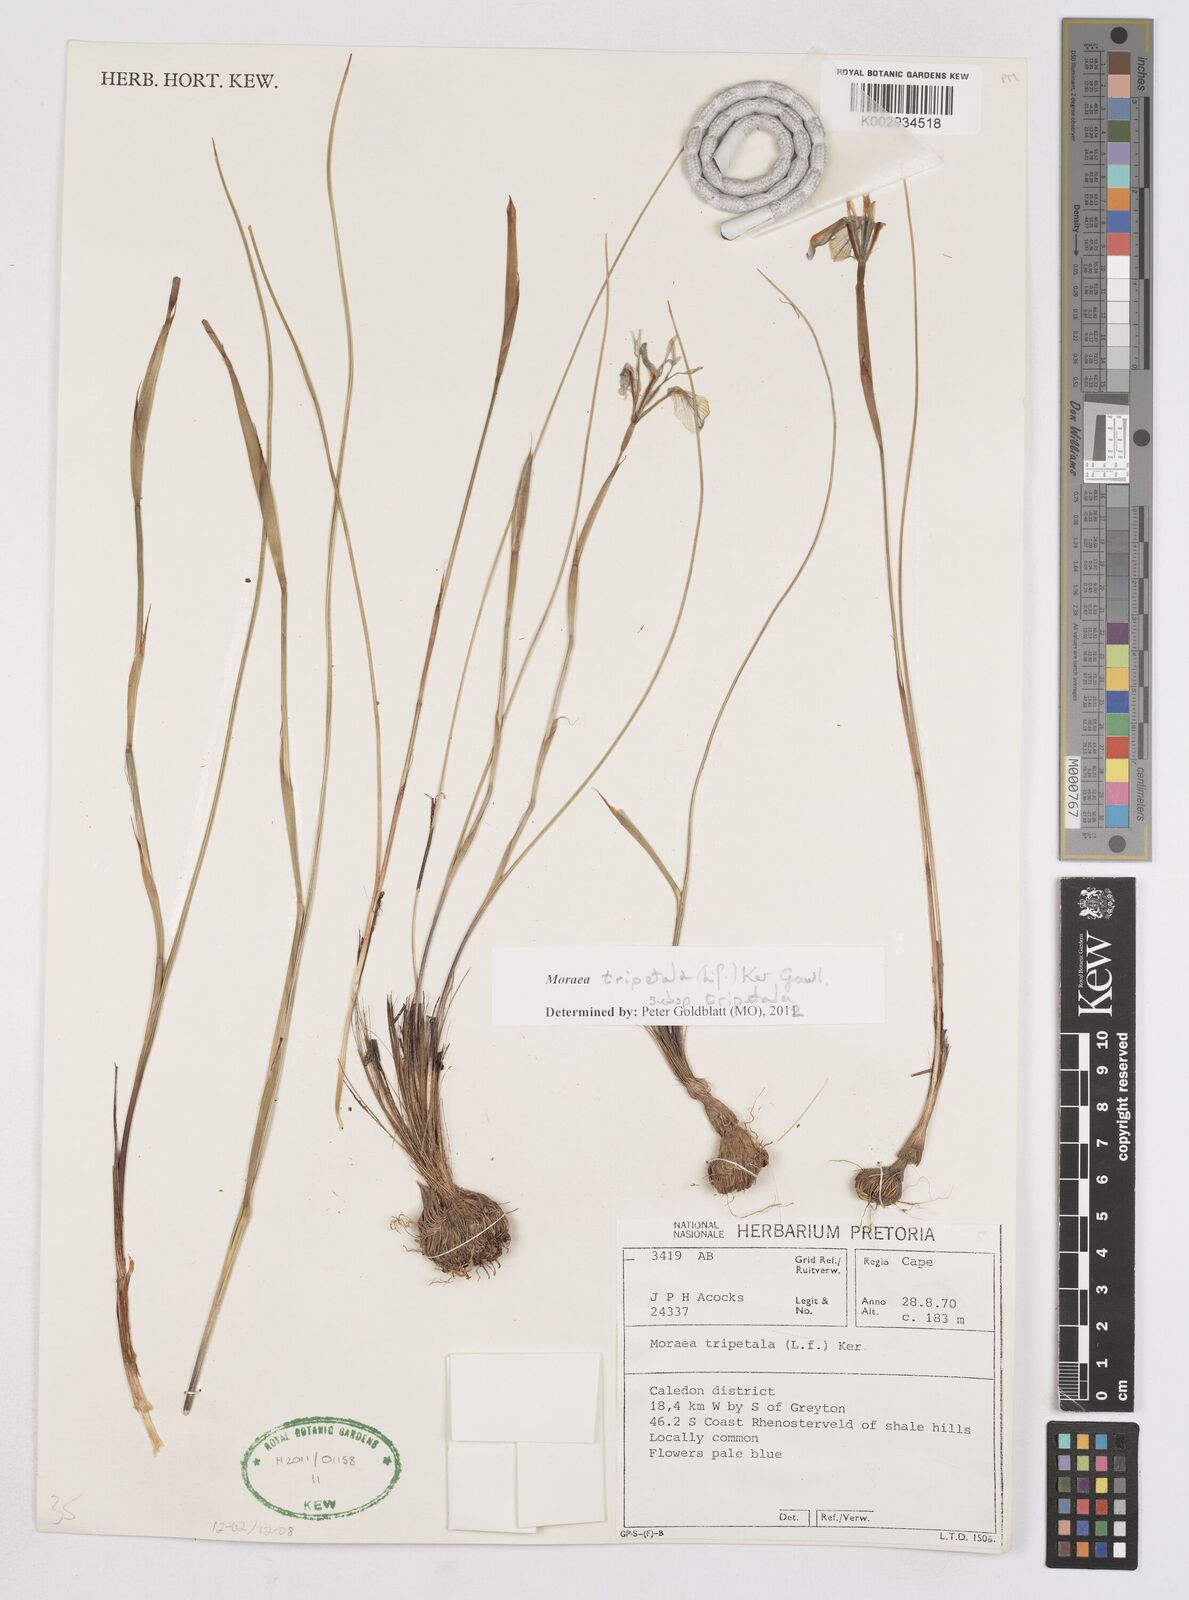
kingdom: Plantae
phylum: Tracheophyta
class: Liliopsida
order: Asparagales
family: Iridaceae
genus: Moraea
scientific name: Moraea tripetala
